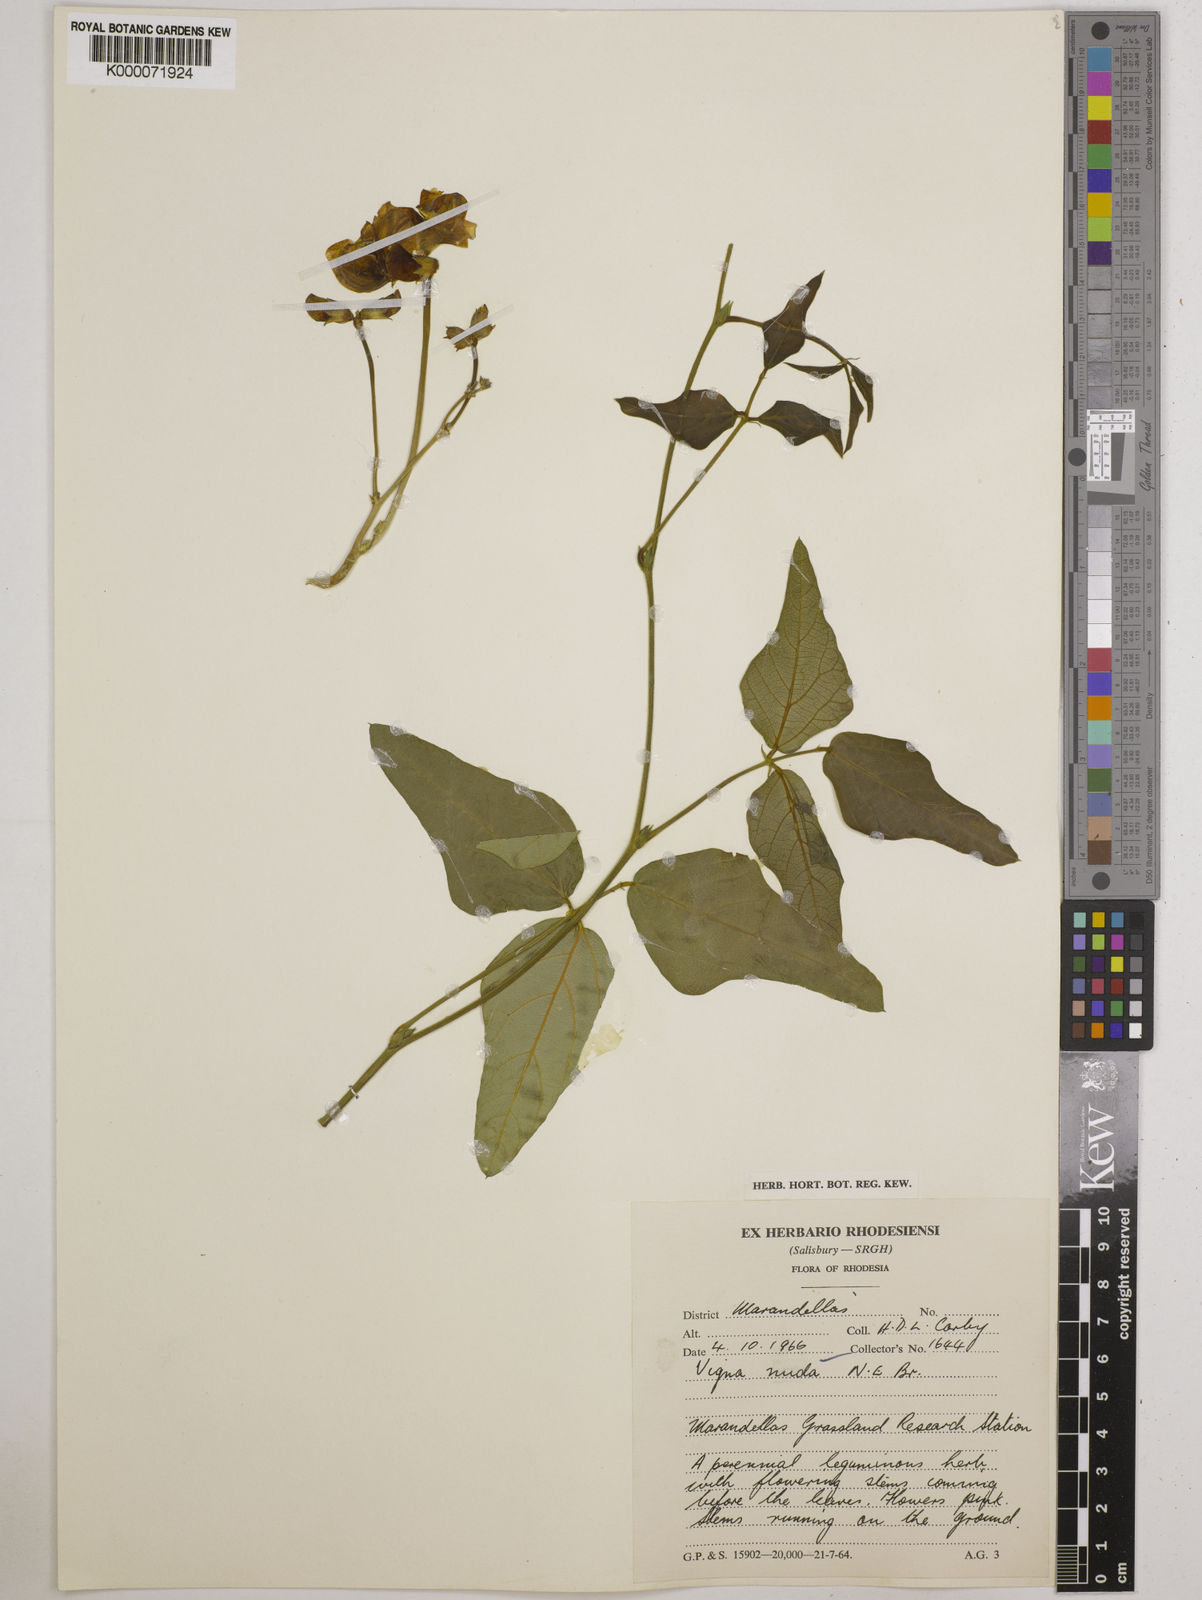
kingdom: Plantae
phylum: Tracheophyta
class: Magnoliopsida
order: Fabales
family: Fabaceae
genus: Vigna
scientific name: Vigna antunesii
